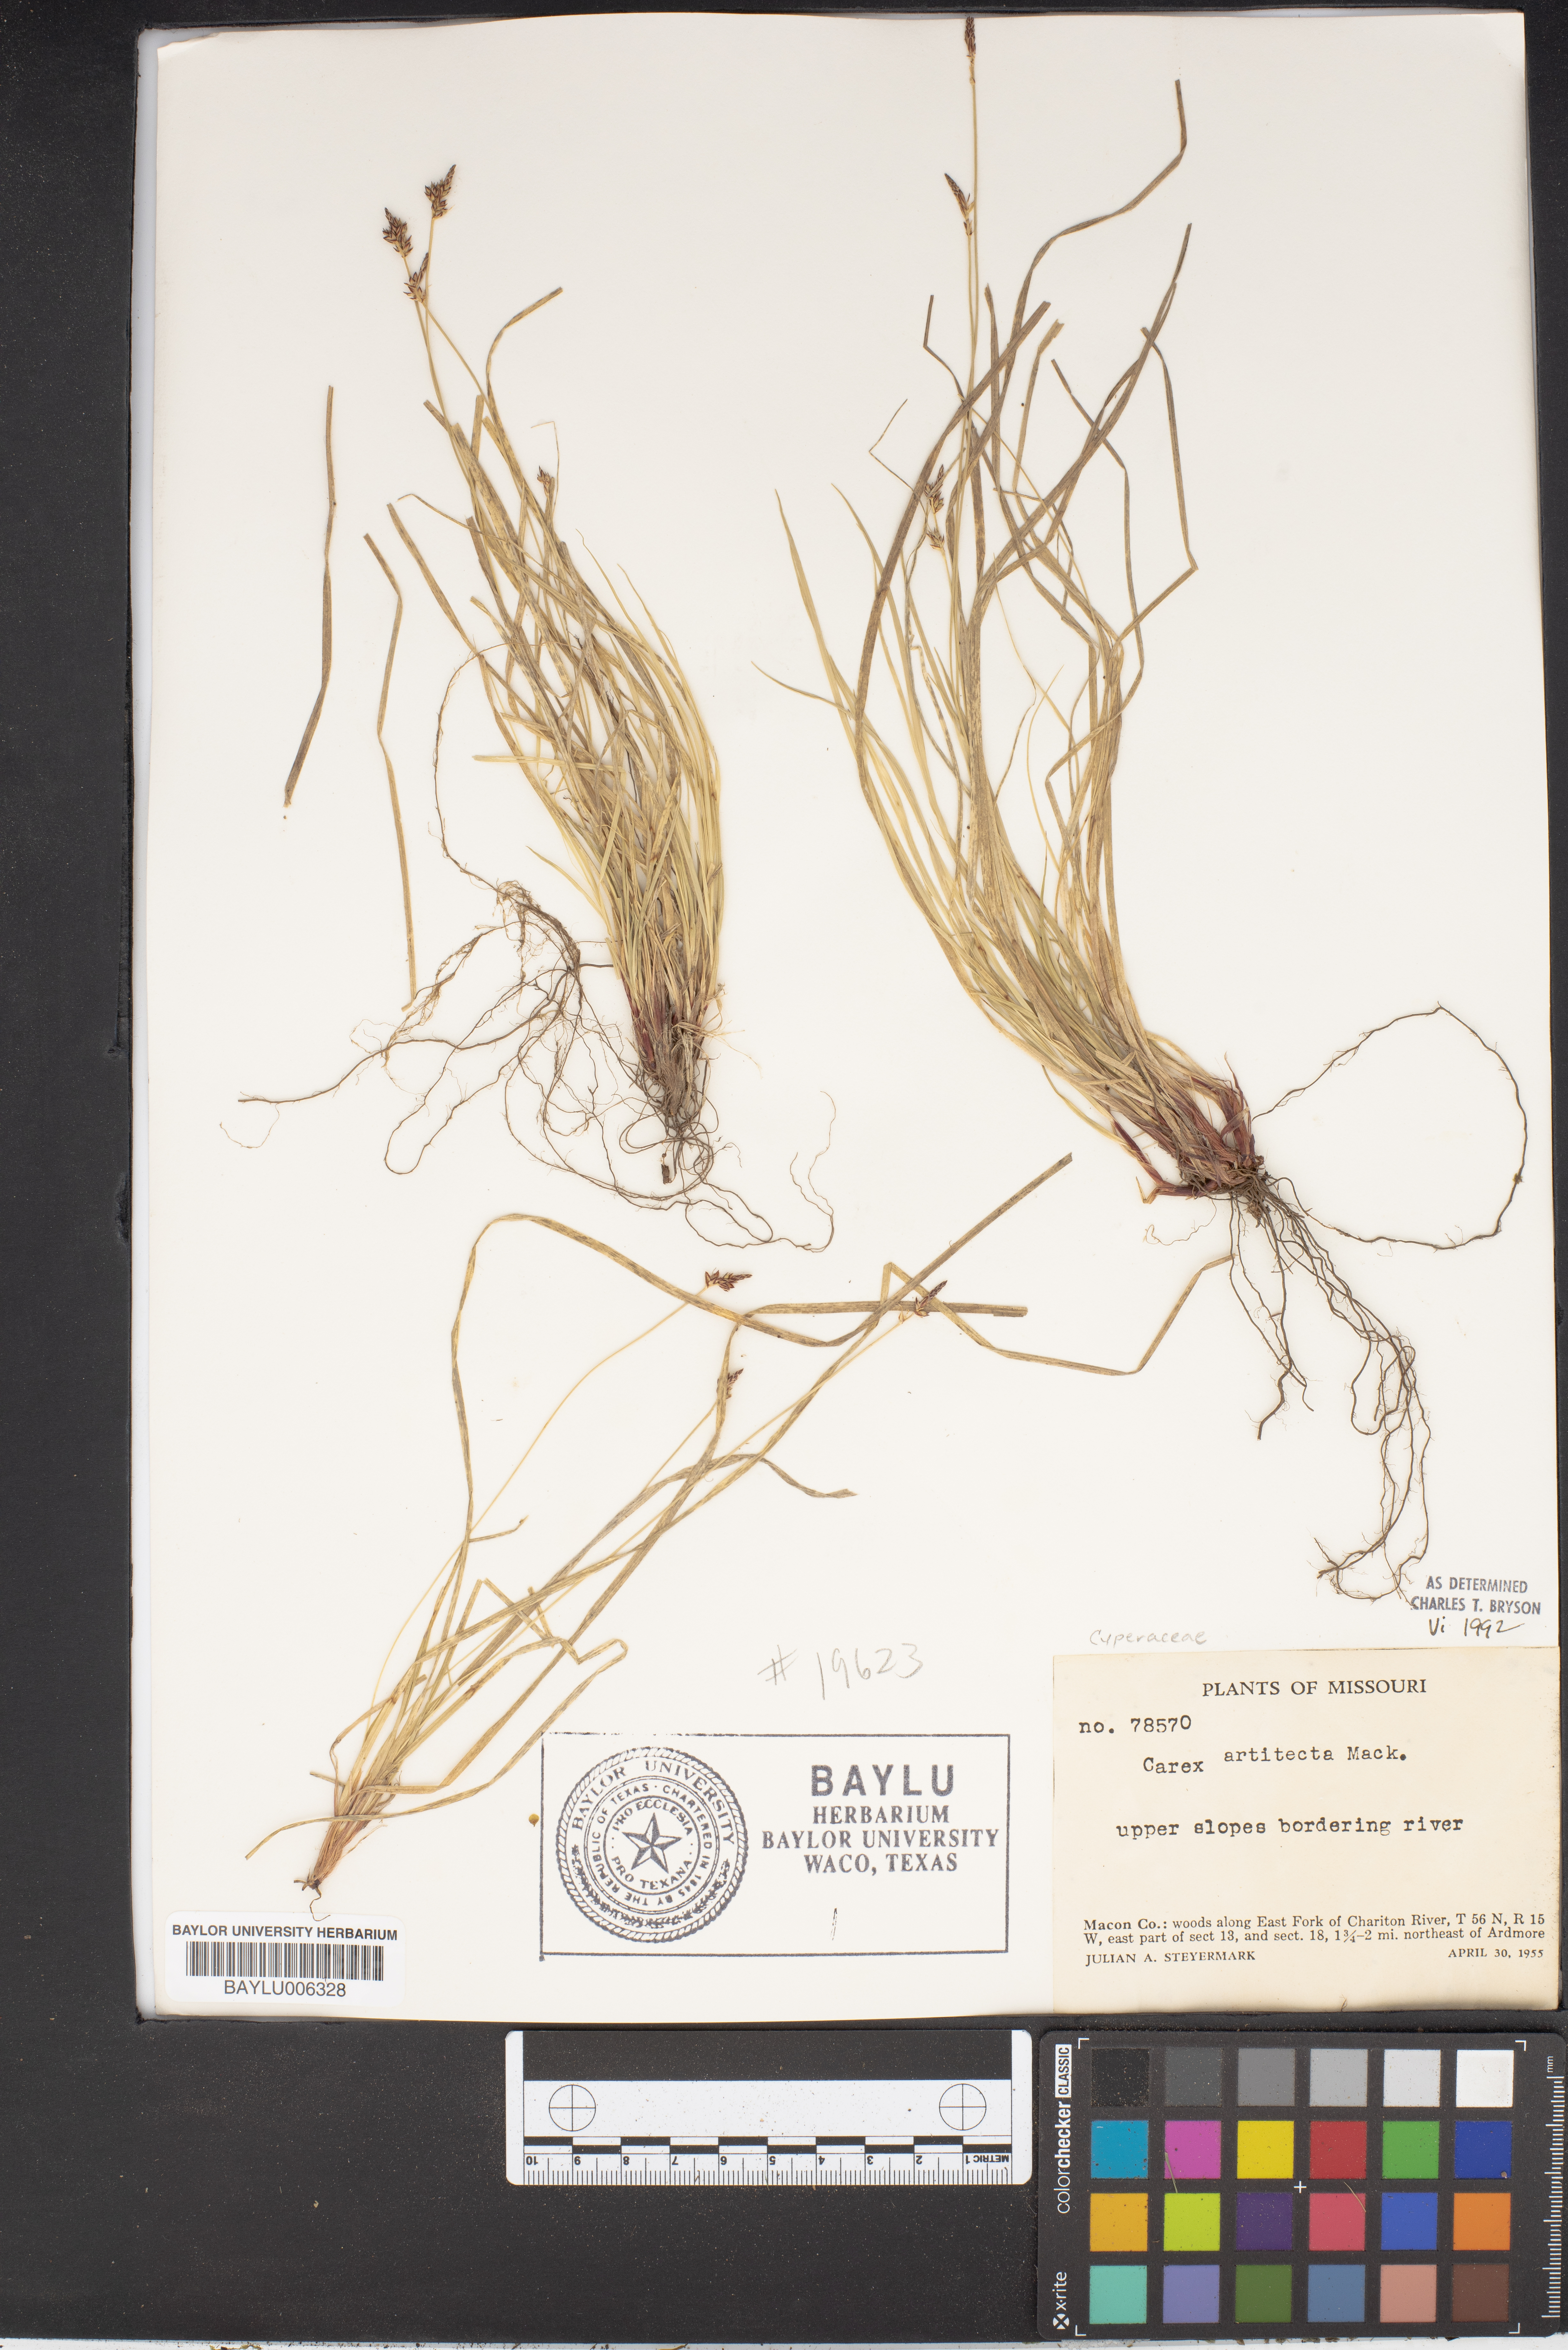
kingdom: Plantae
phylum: Tracheophyta
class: Liliopsida
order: Poales
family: Cyperaceae
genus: Carex
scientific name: Carex albicans
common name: Bellow-beaked sedge
